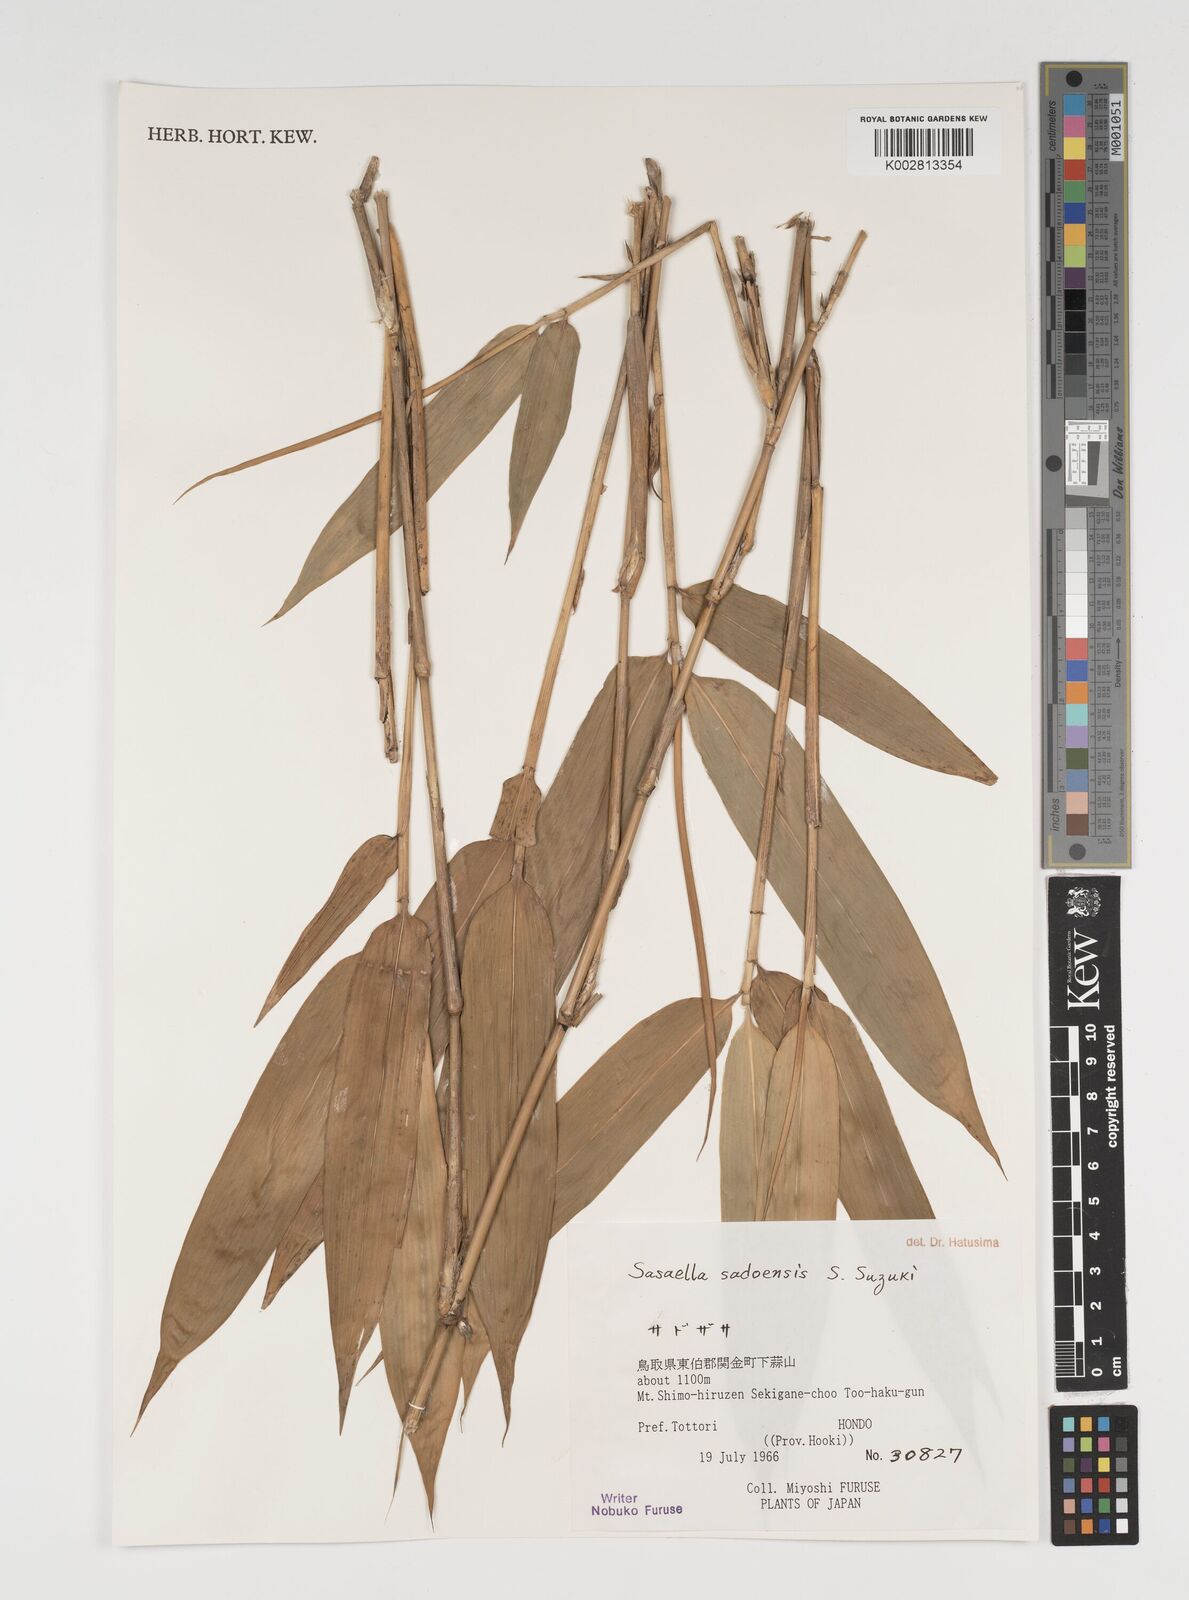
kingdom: Plantae
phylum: Tracheophyta
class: Liliopsida
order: Poales
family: Poaceae
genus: Sasa
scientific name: Sasa
